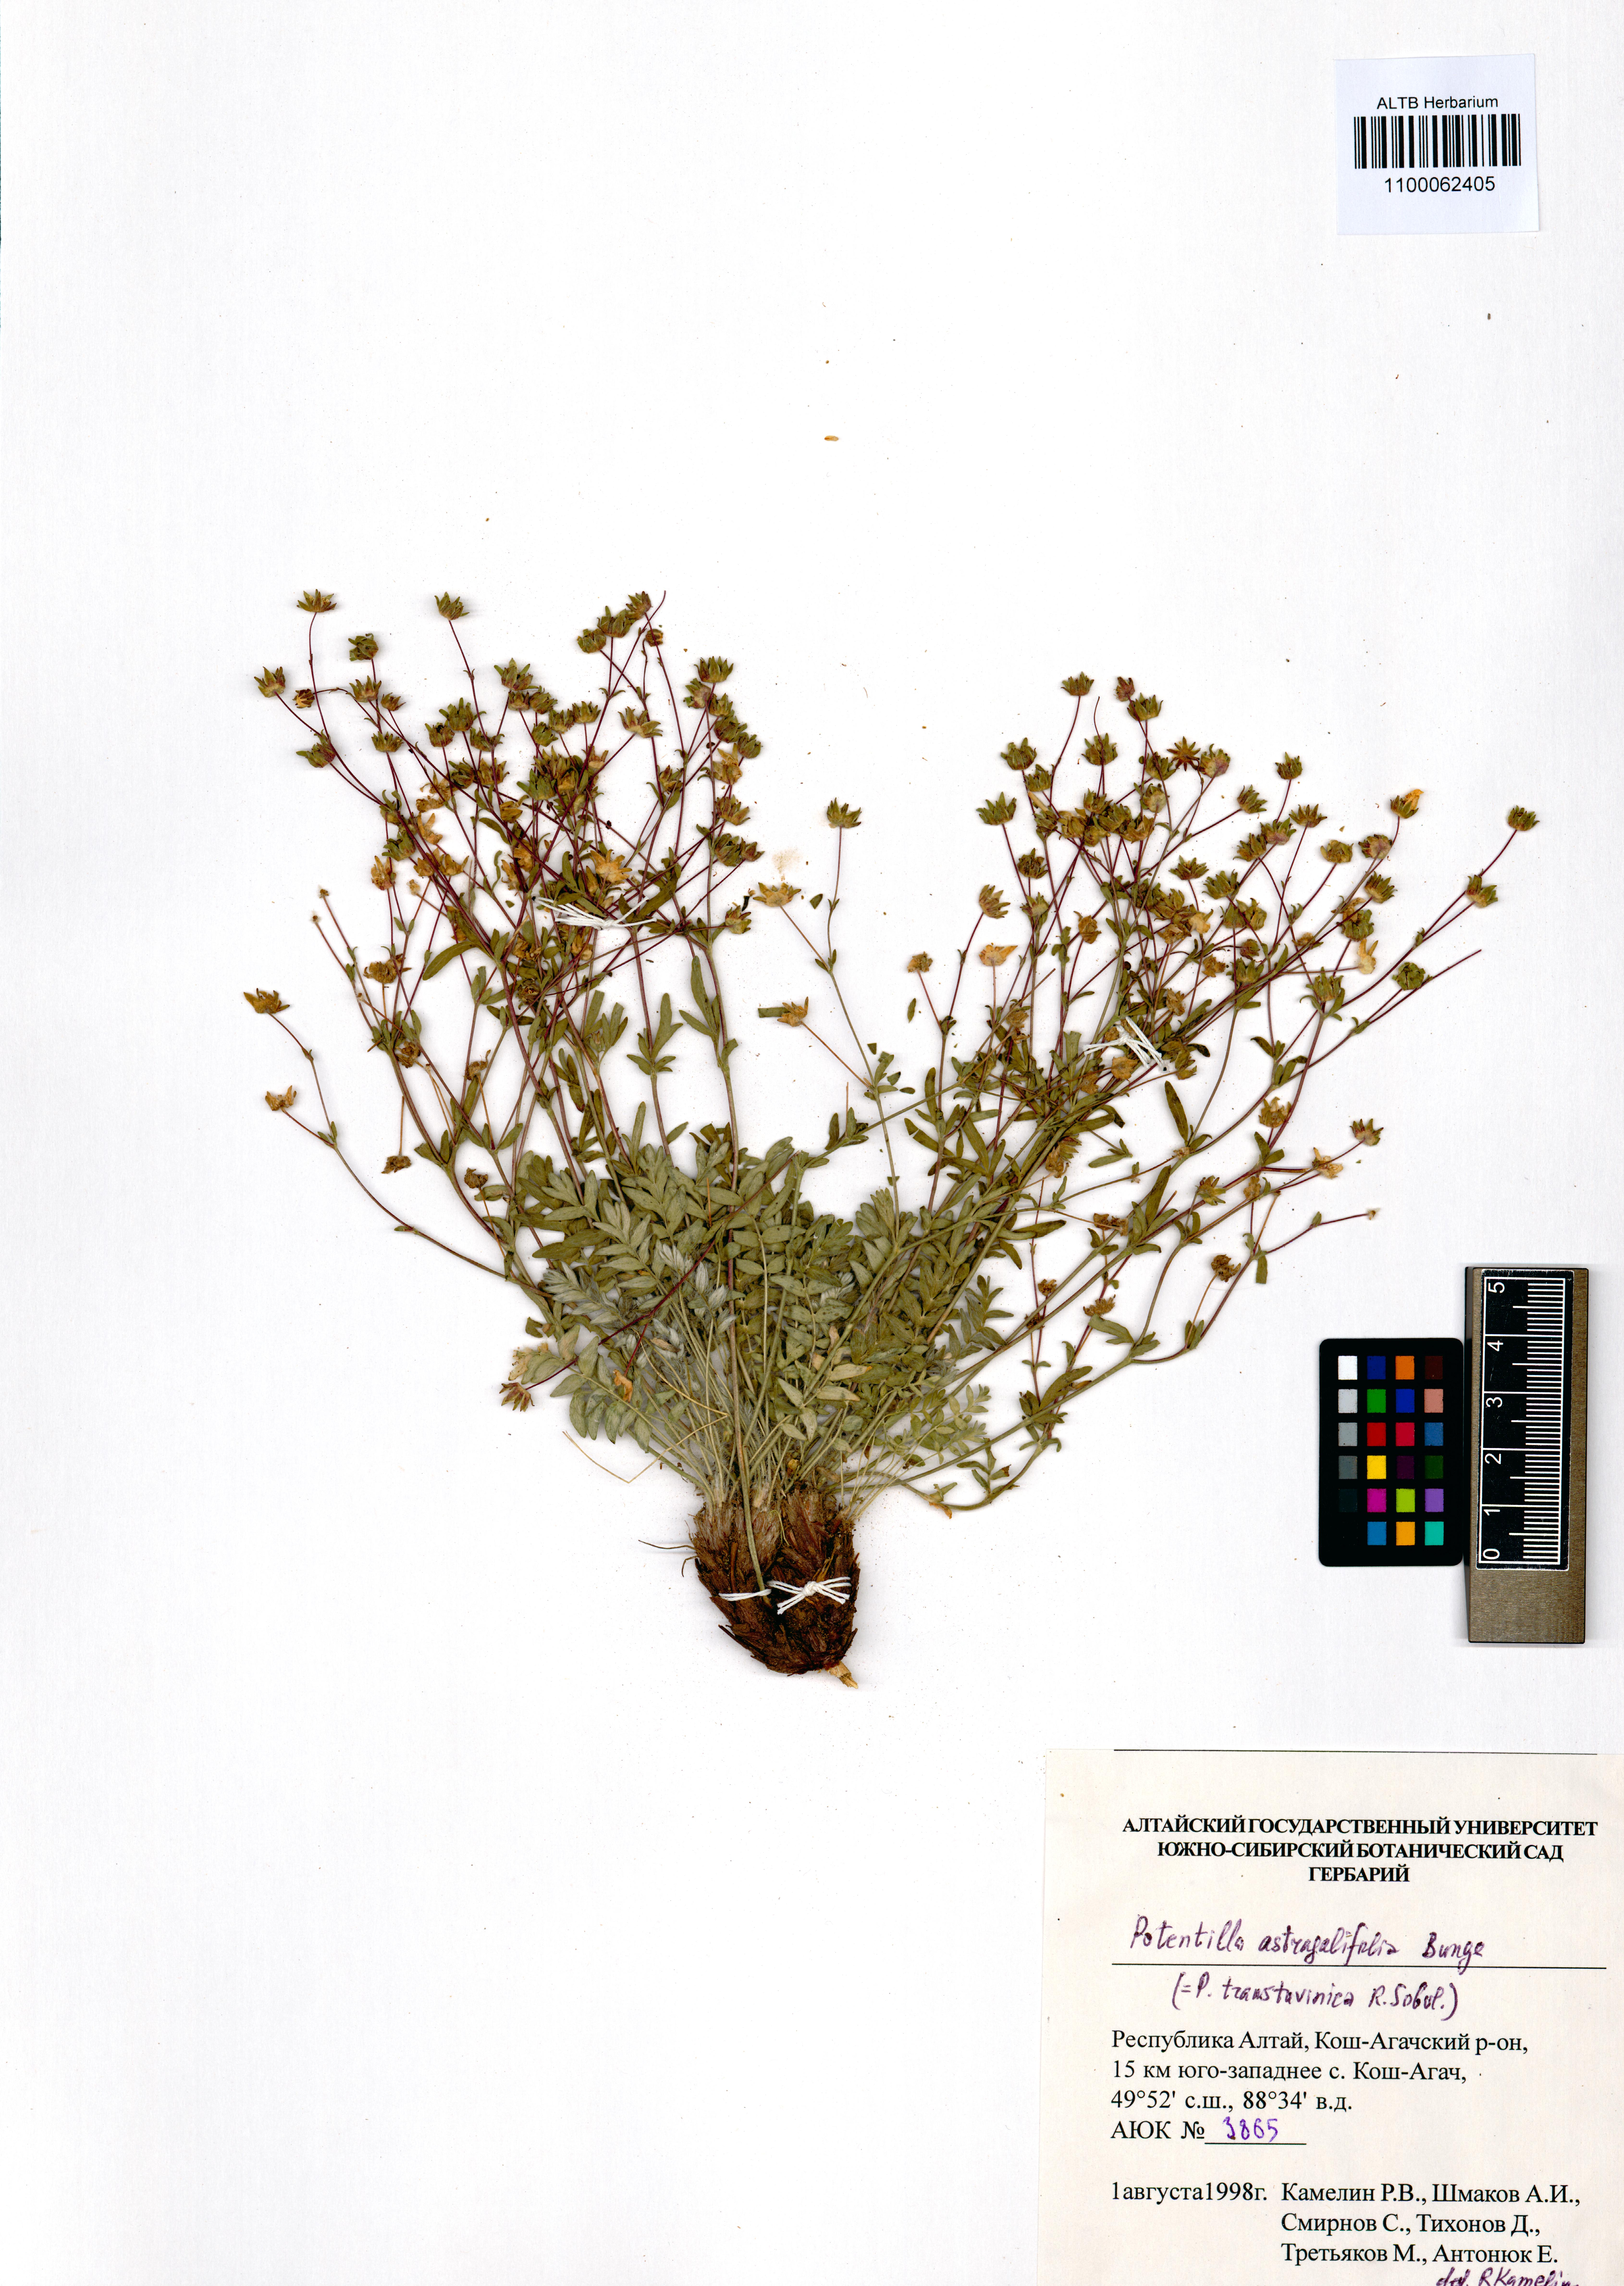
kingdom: Plantae
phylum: Tracheophyta
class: Magnoliopsida
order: Rosales
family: Rosaceae
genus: Potentilla
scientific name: Potentilla astragalifolia
